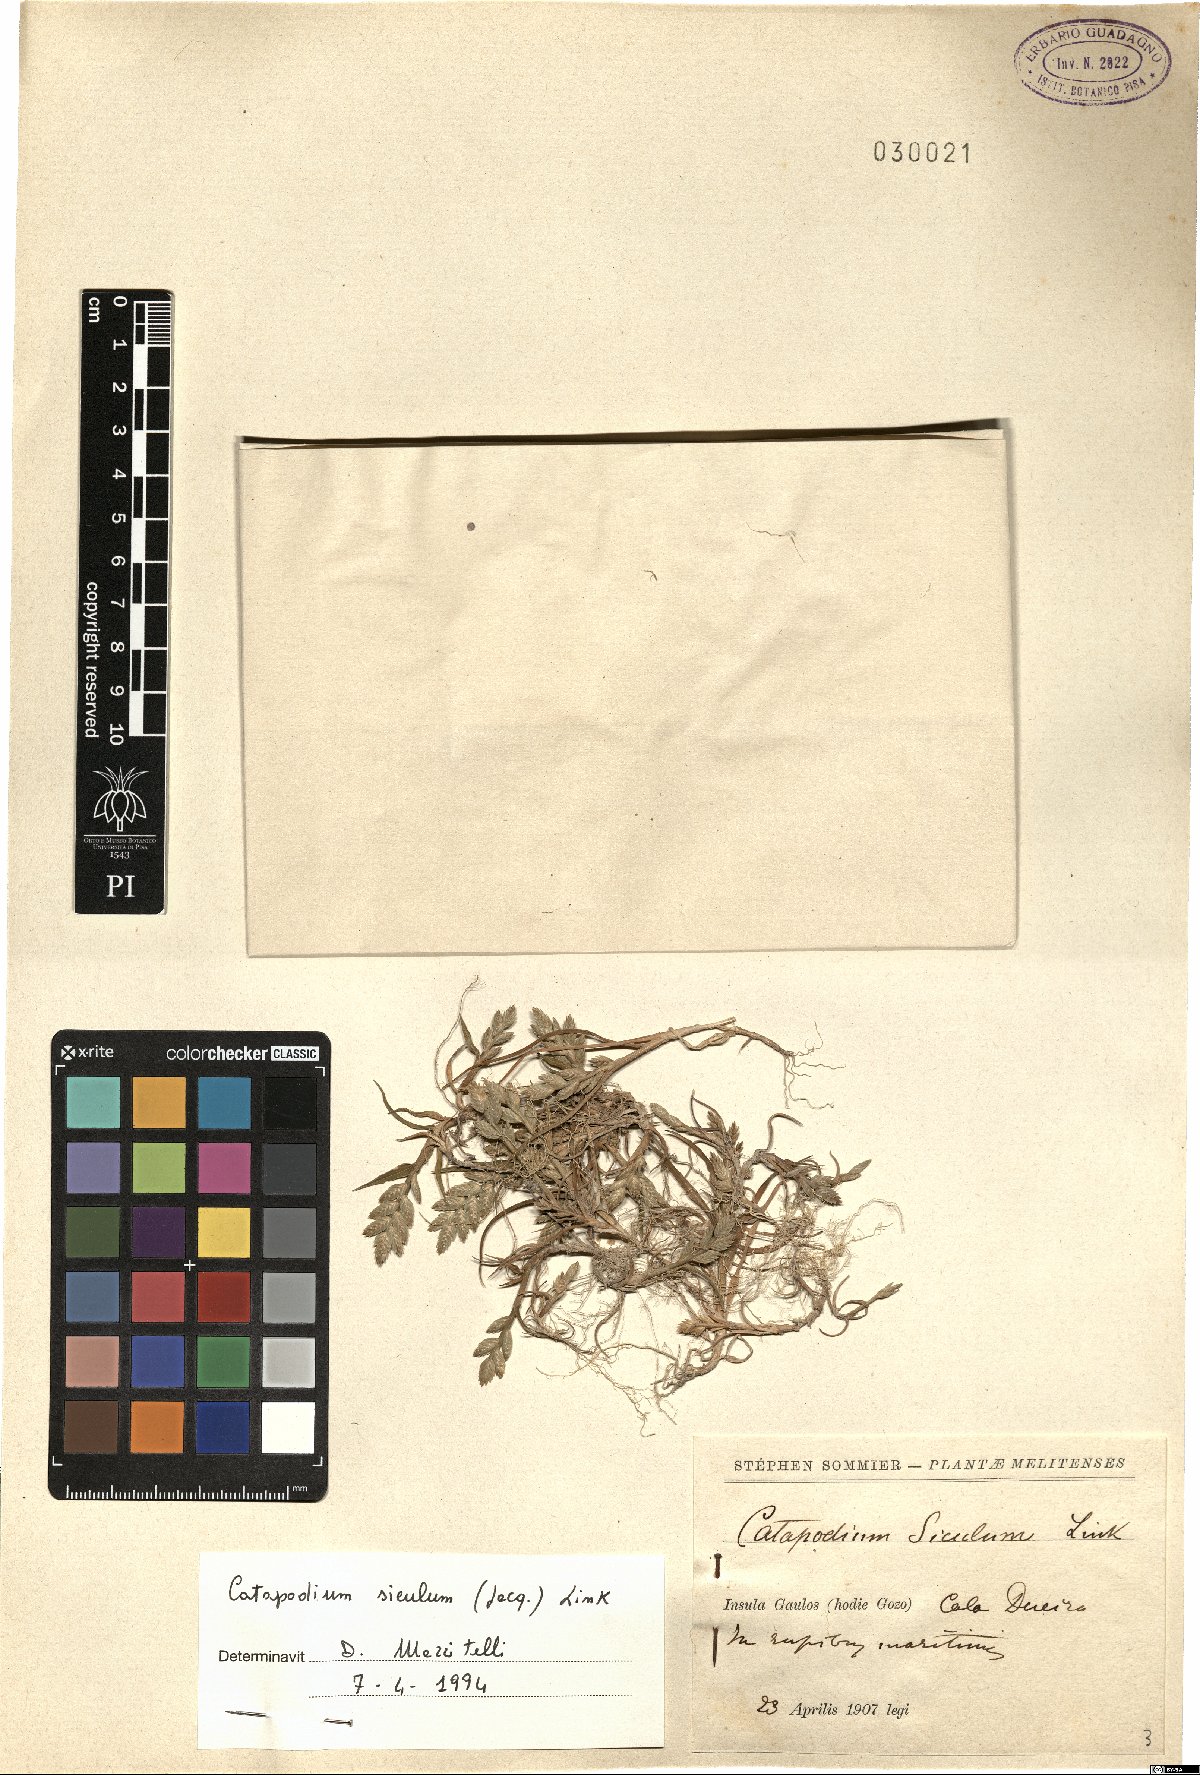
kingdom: Plantae
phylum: Tracheophyta
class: Liliopsida
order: Poales
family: Poaceae
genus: Desmazeria
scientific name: Desmazeria sicula
